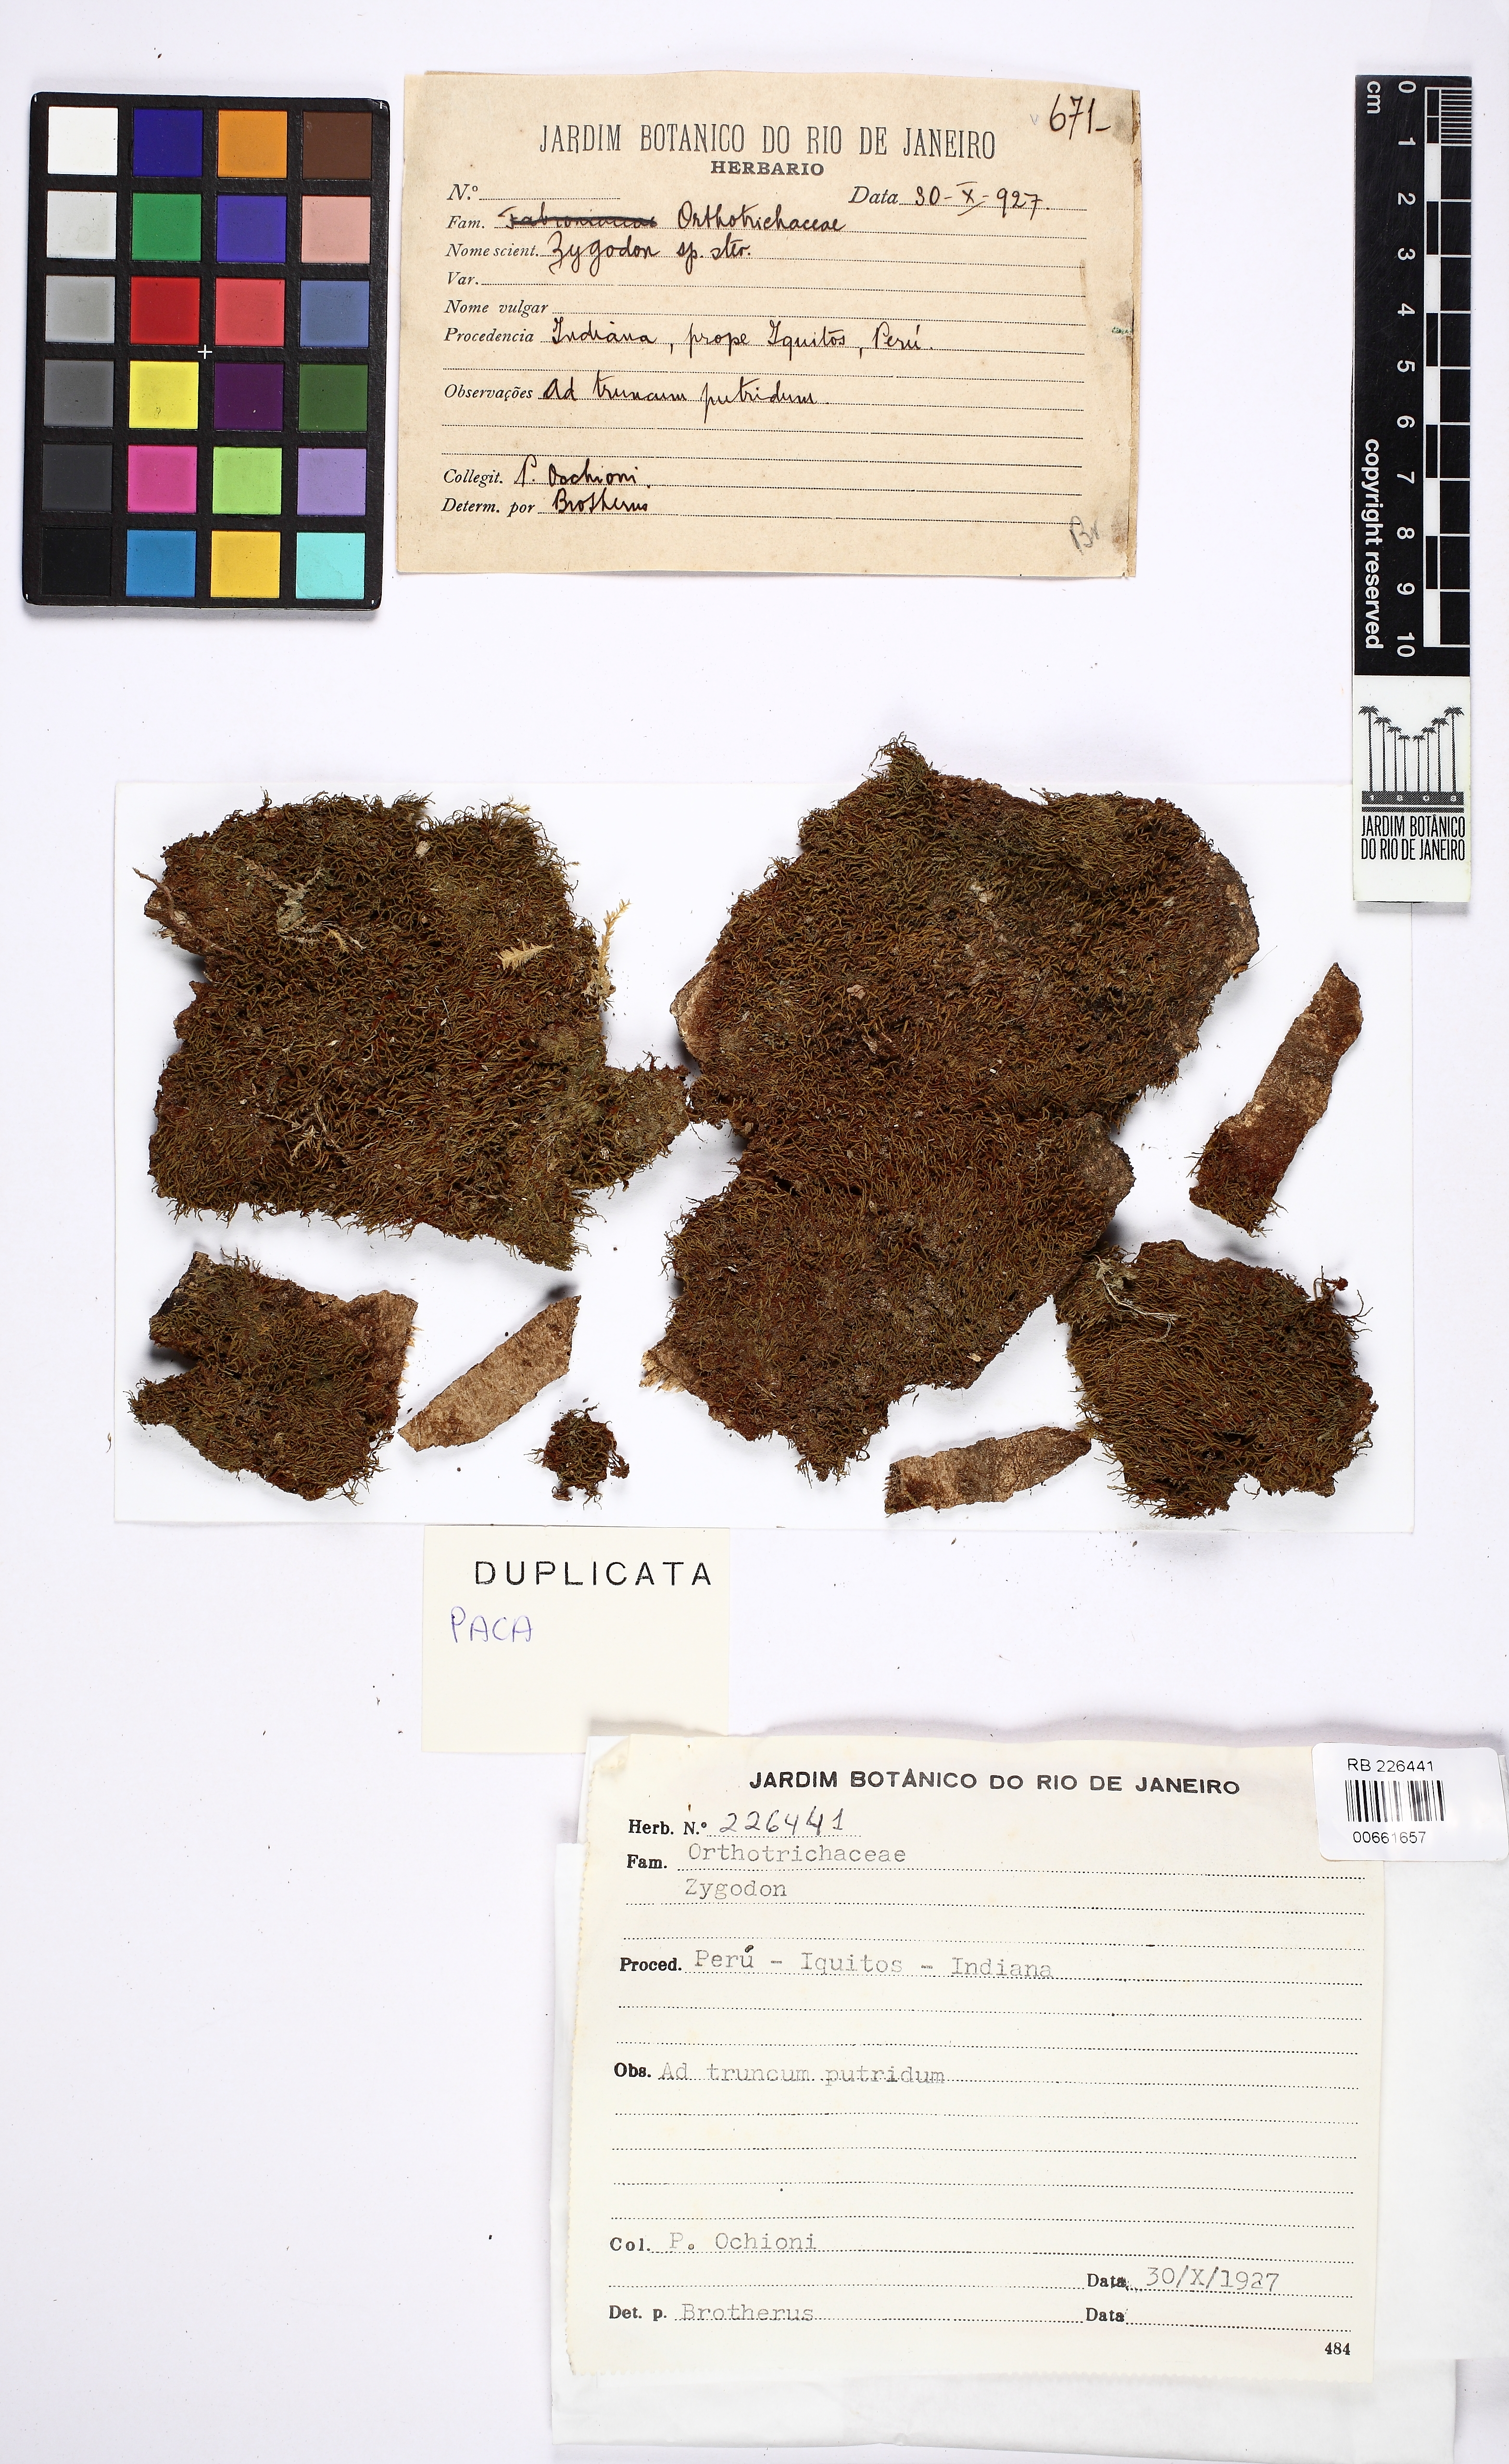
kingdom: Plantae
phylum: Bryophyta
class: Bryopsida
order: Orthotrichales
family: Orthotrichaceae
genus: Zygodon
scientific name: Zygodon
